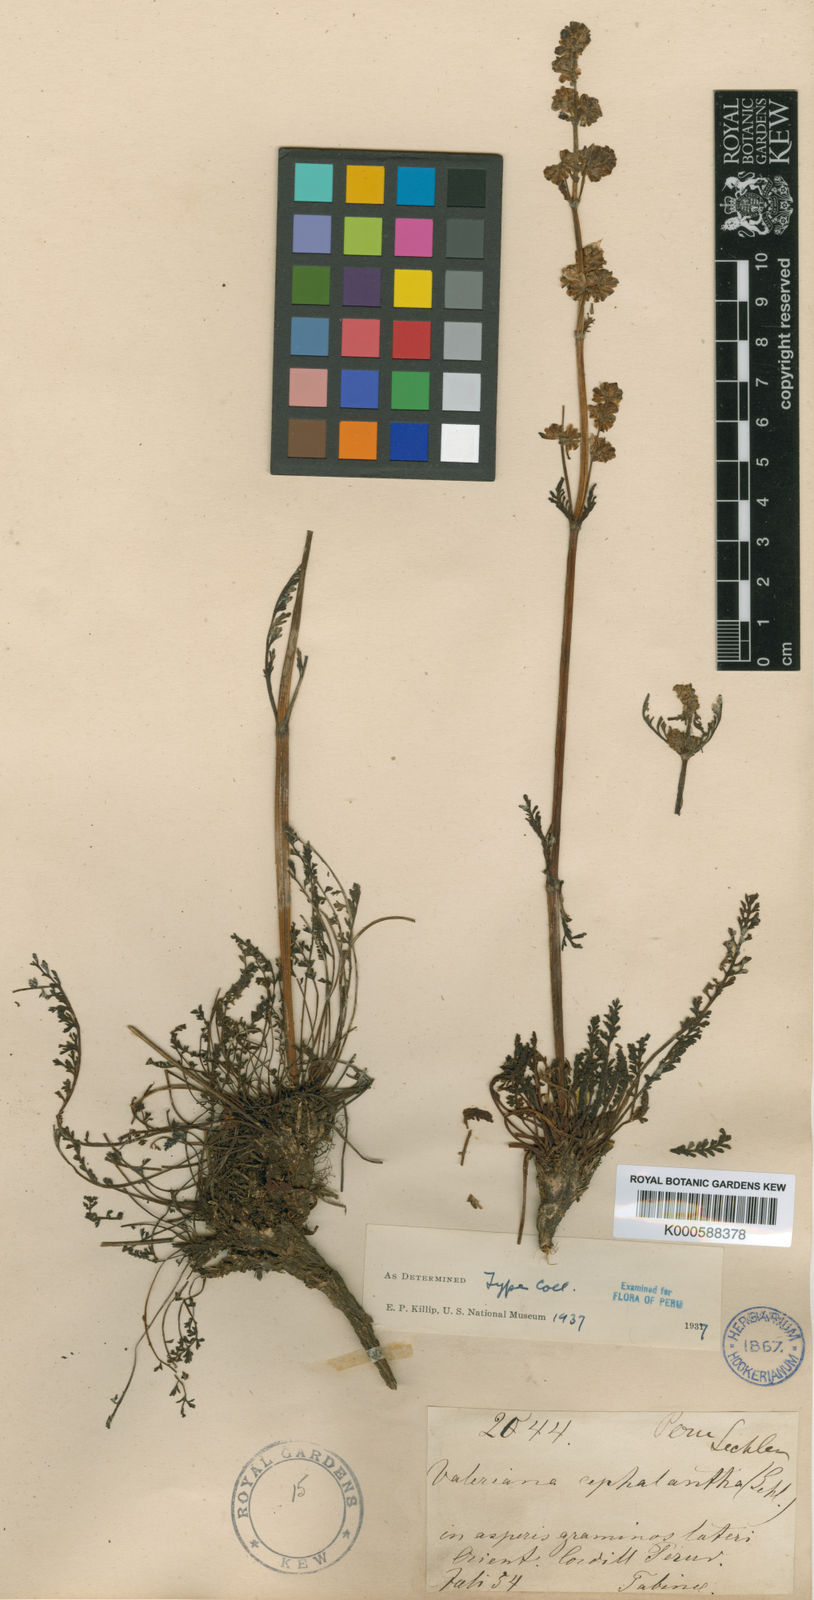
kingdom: Plantae
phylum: Tracheophyta
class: Magnoliopsida
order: Dipsacales
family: Caprifoliaceae
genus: Valeriana
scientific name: Valeriana cephalantha
